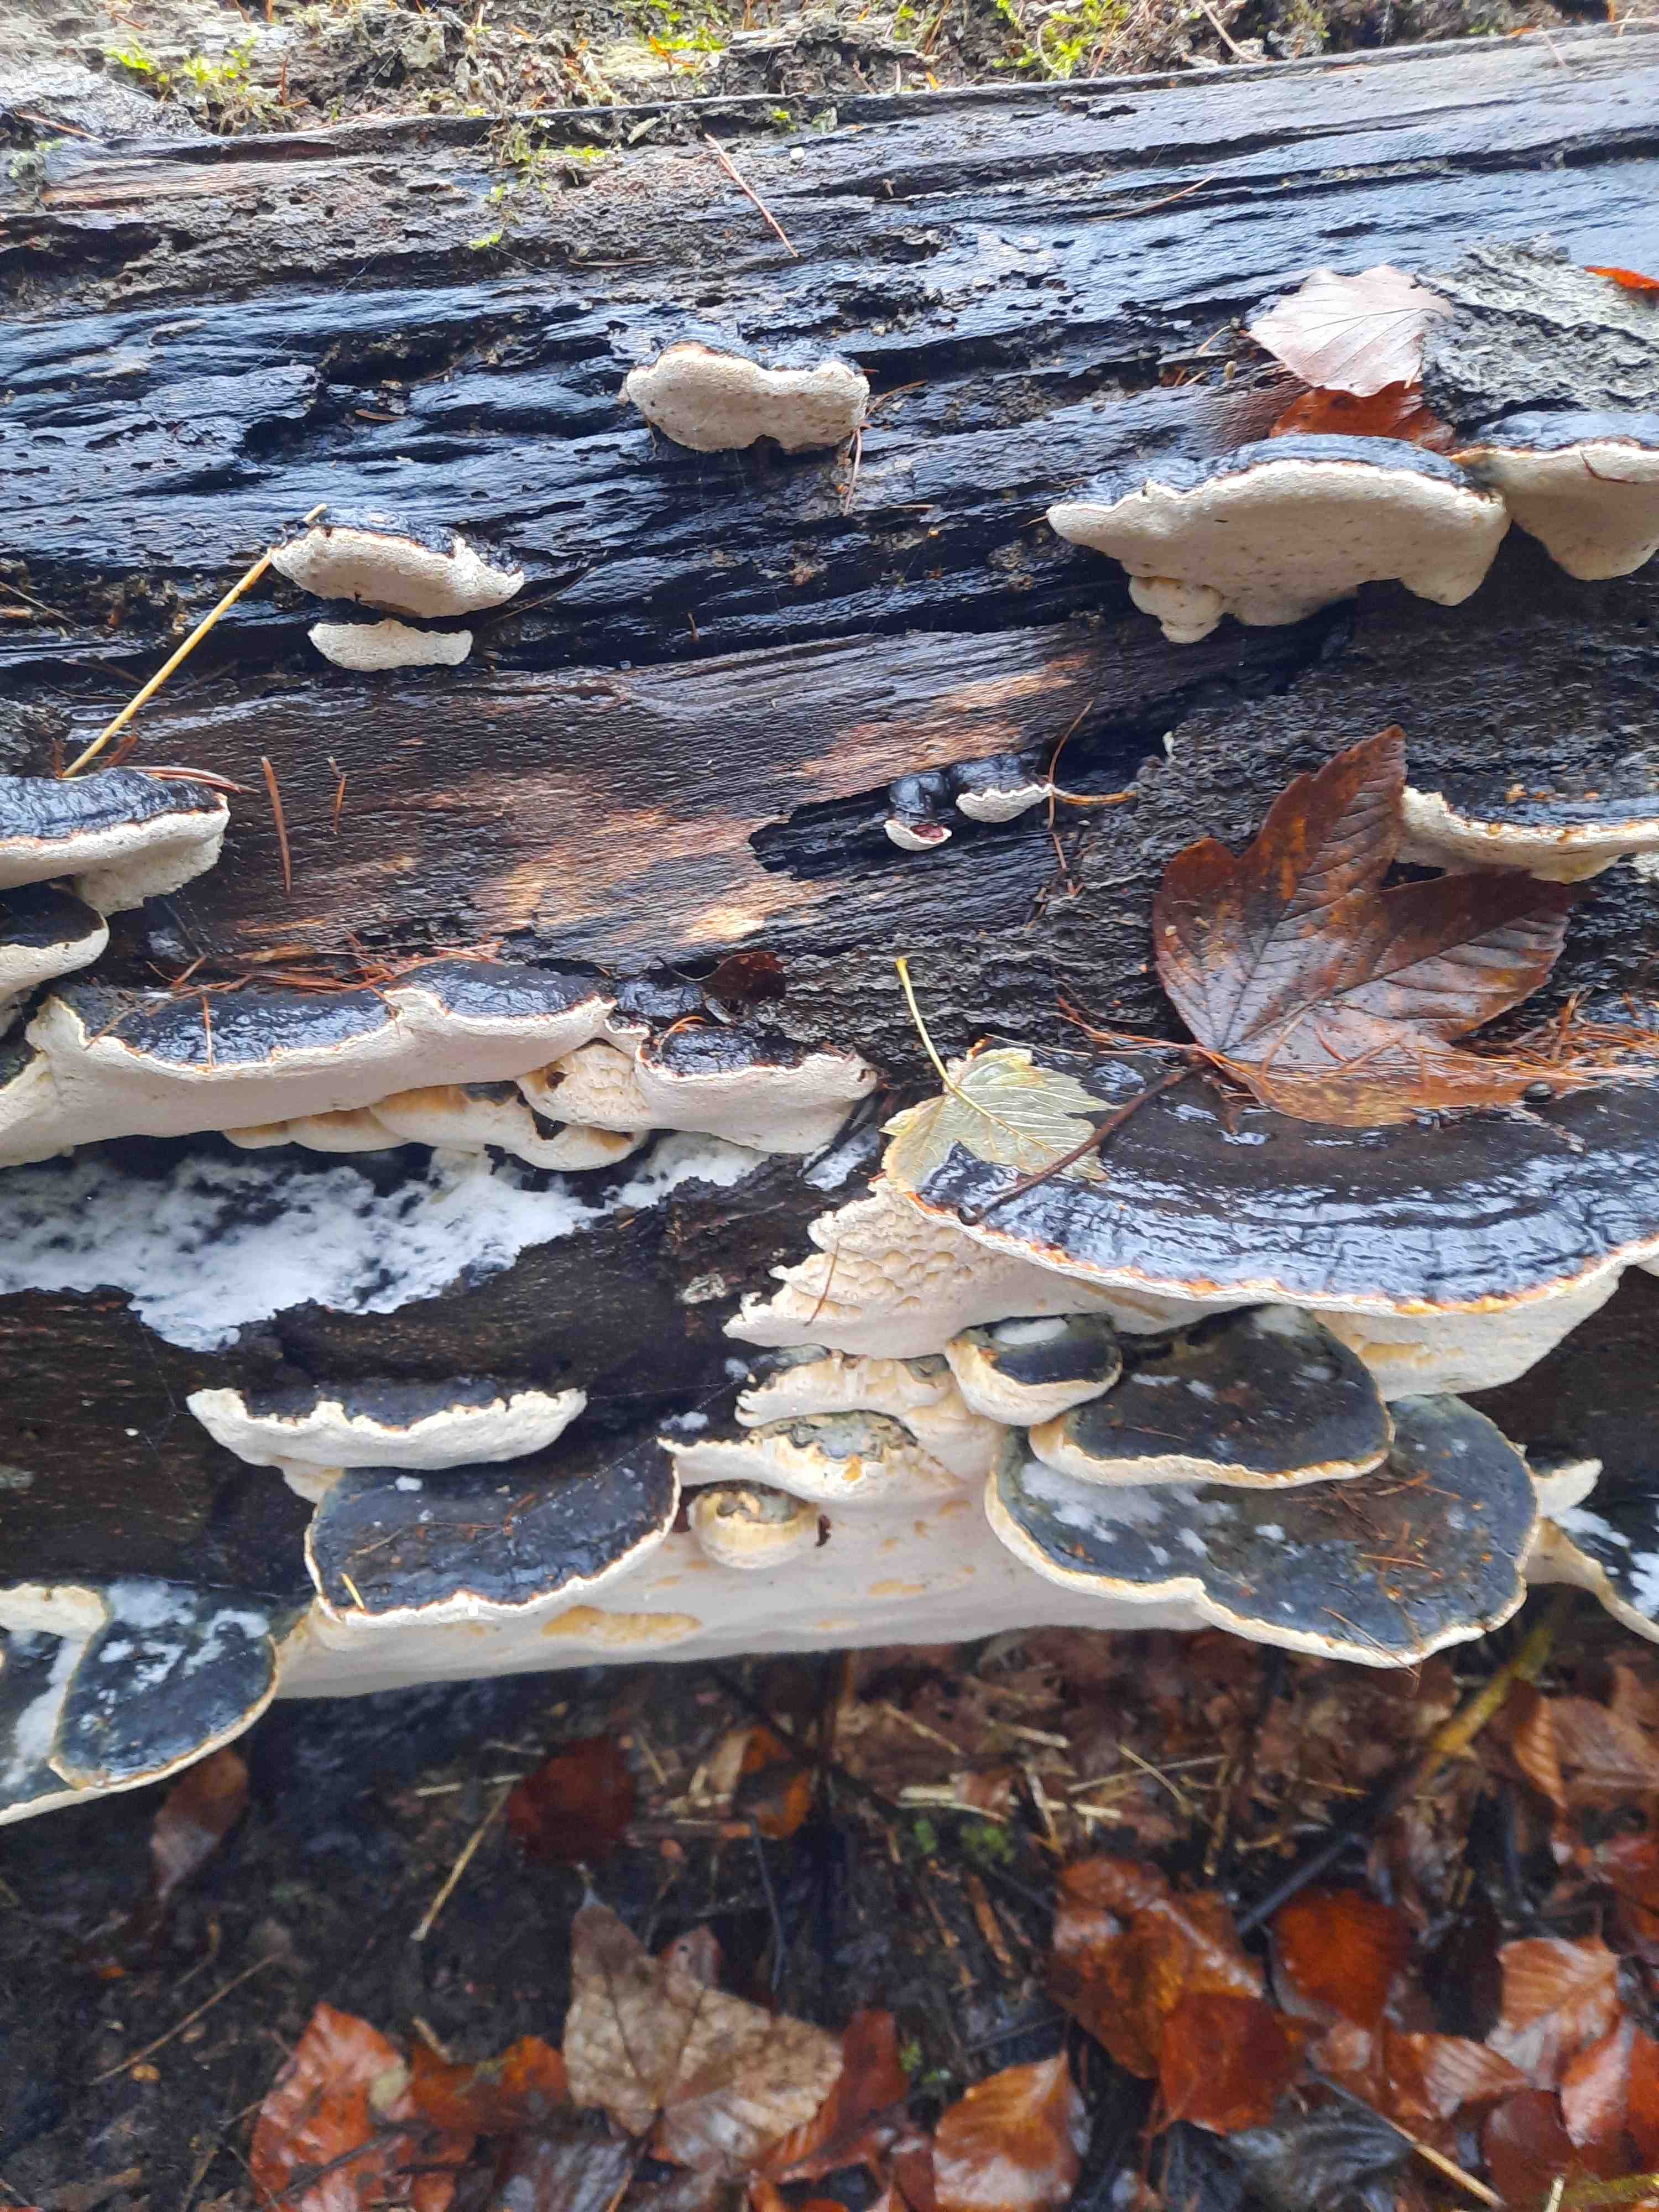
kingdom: Fungi
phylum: Basidiomycota
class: Agaricomycetes
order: Polyporales
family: Ischnodermataceae
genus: Ischnoderma
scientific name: Ischnoderma resinosum
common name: løv-tjæreporesvamp
